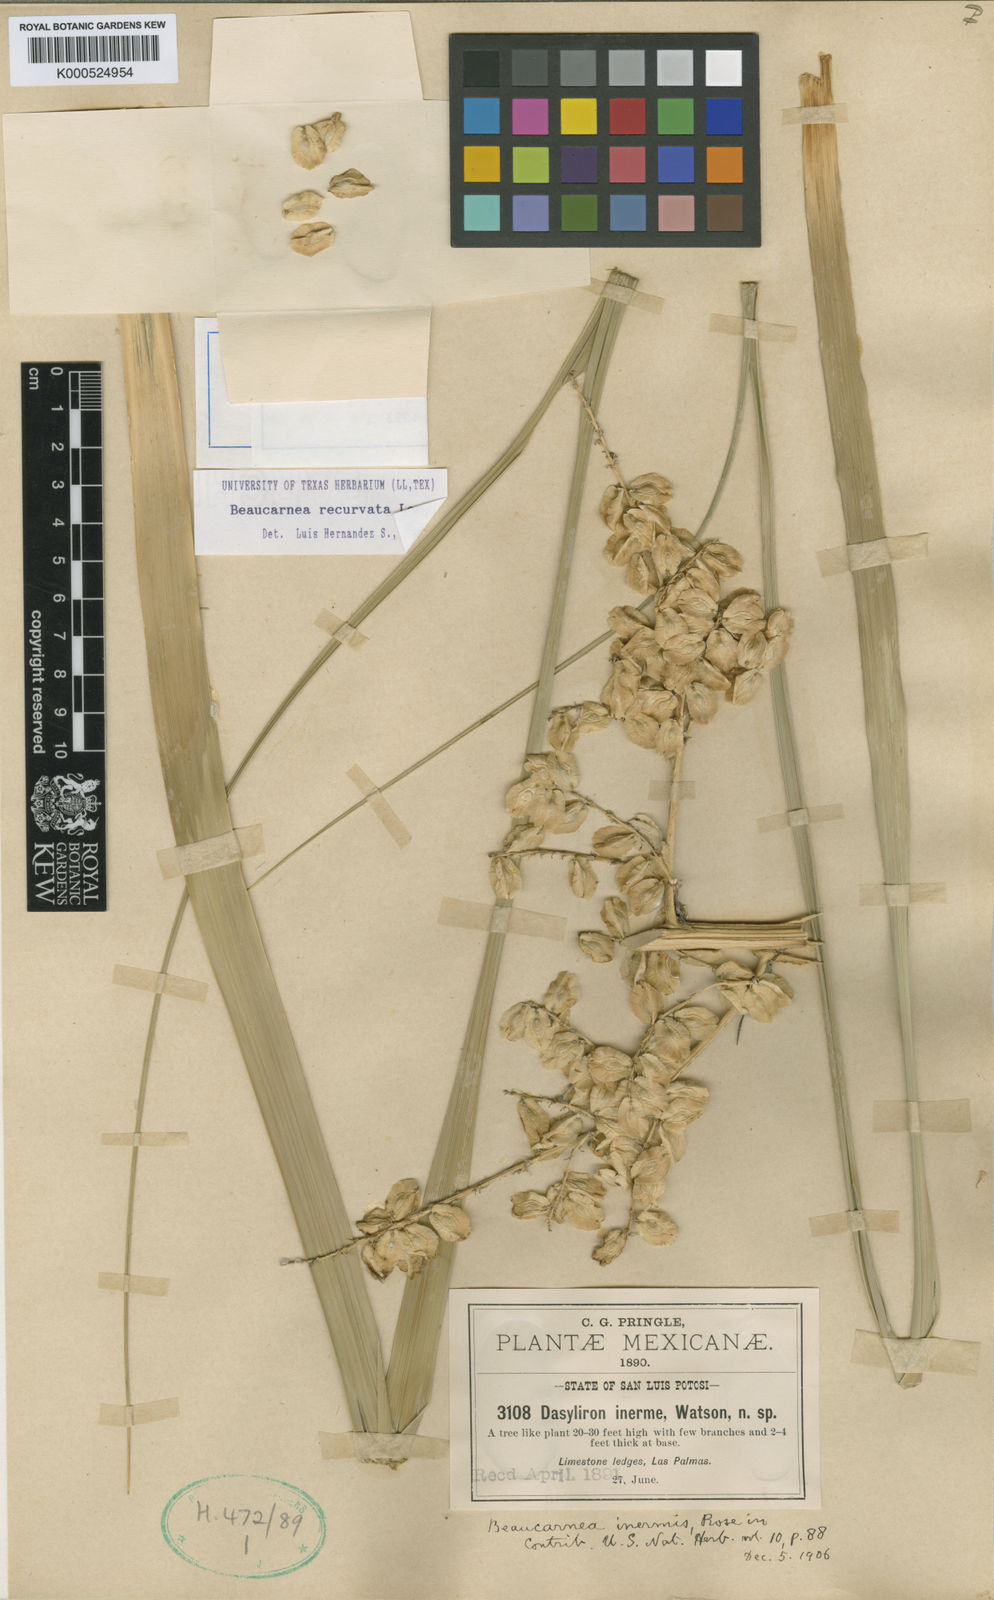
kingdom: Plantae
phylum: Tracheophyta
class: Liliopsida
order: Asparagales
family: Asparagaceae
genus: Beaucarnea
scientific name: Beaucarnea recurvata
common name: Stripy  ponytail
